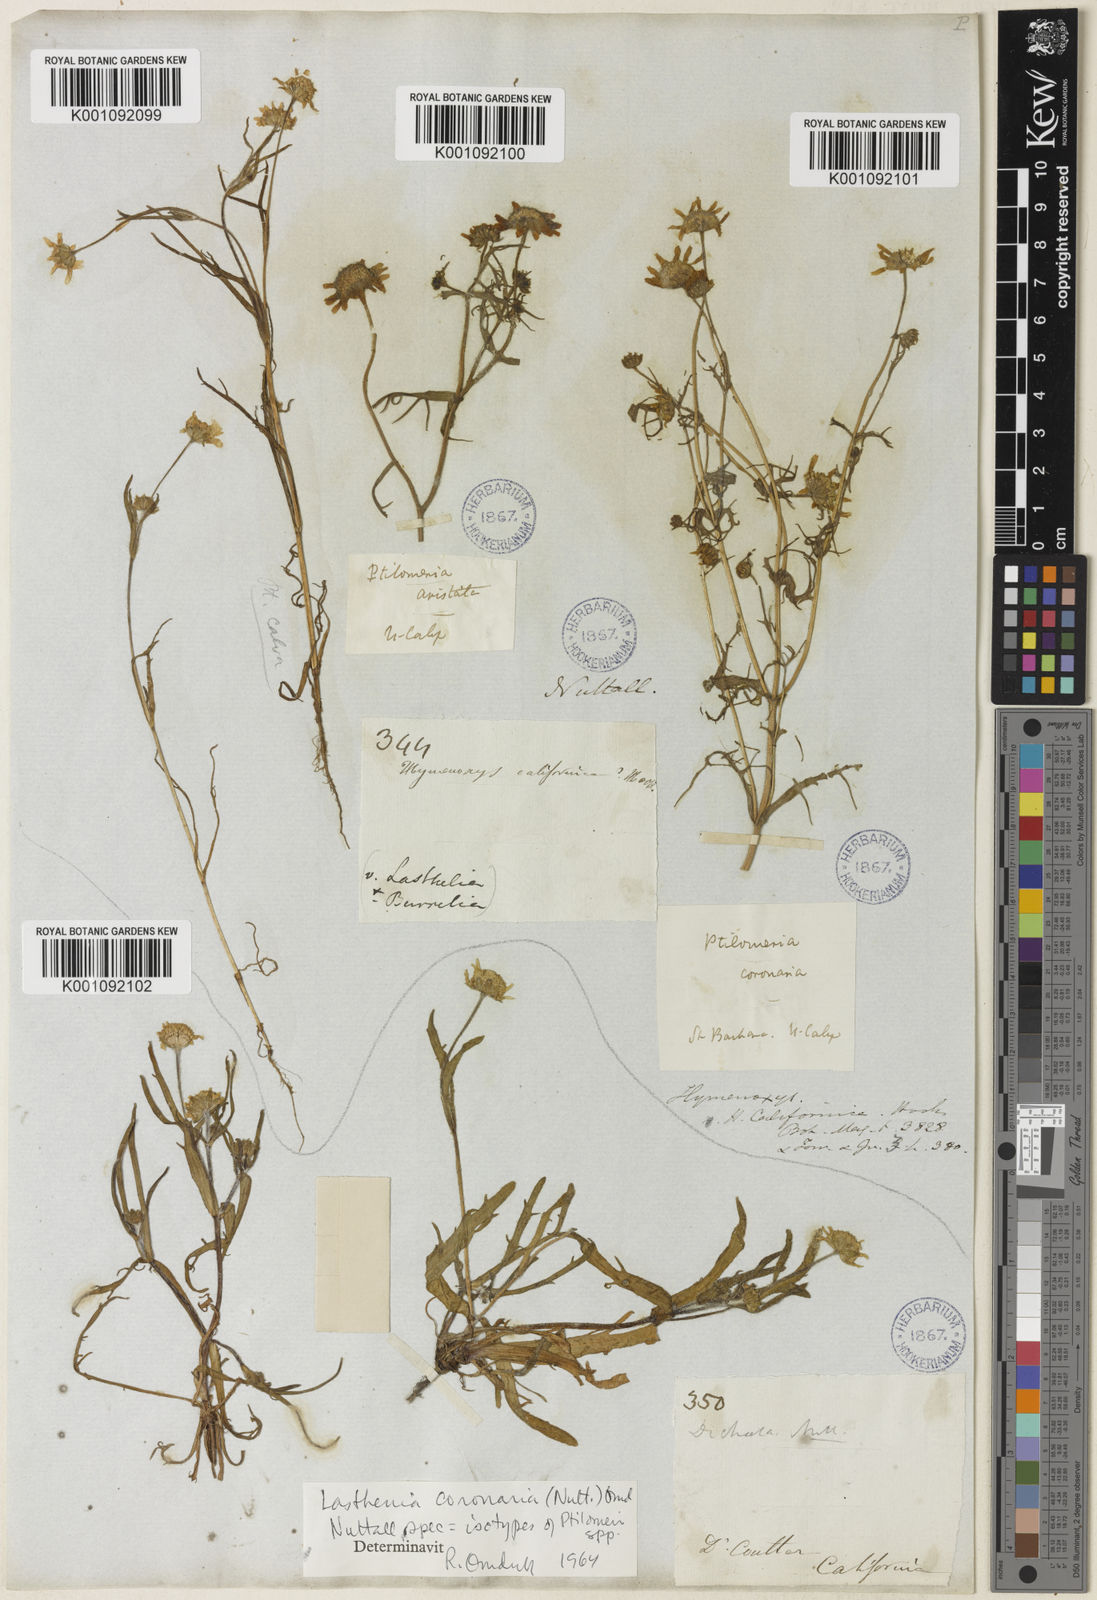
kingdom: Plantae
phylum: Tracheophyta
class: Magnoliopsida
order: Asterales
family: Asteraceae
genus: Lasthenia
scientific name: Lasthenia coronaria
